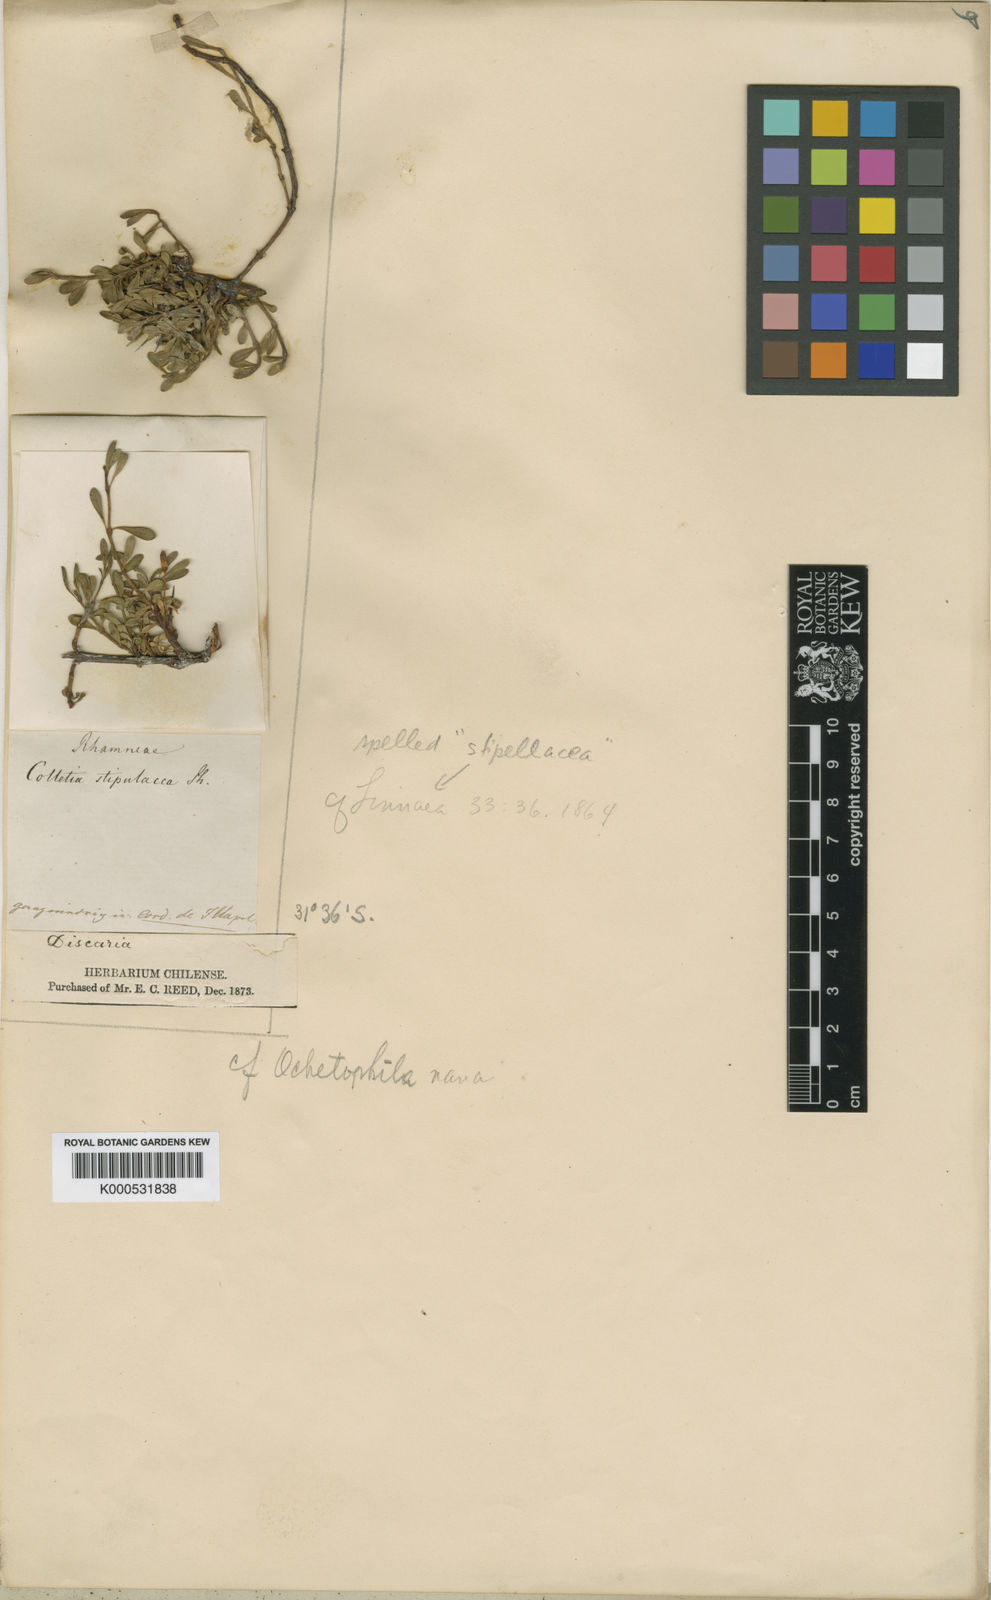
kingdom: Plantae
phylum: Tracheophyta
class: Magnoliopsida
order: Rosales
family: Rhamnaceae
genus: Discaria
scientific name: Discaria nana
